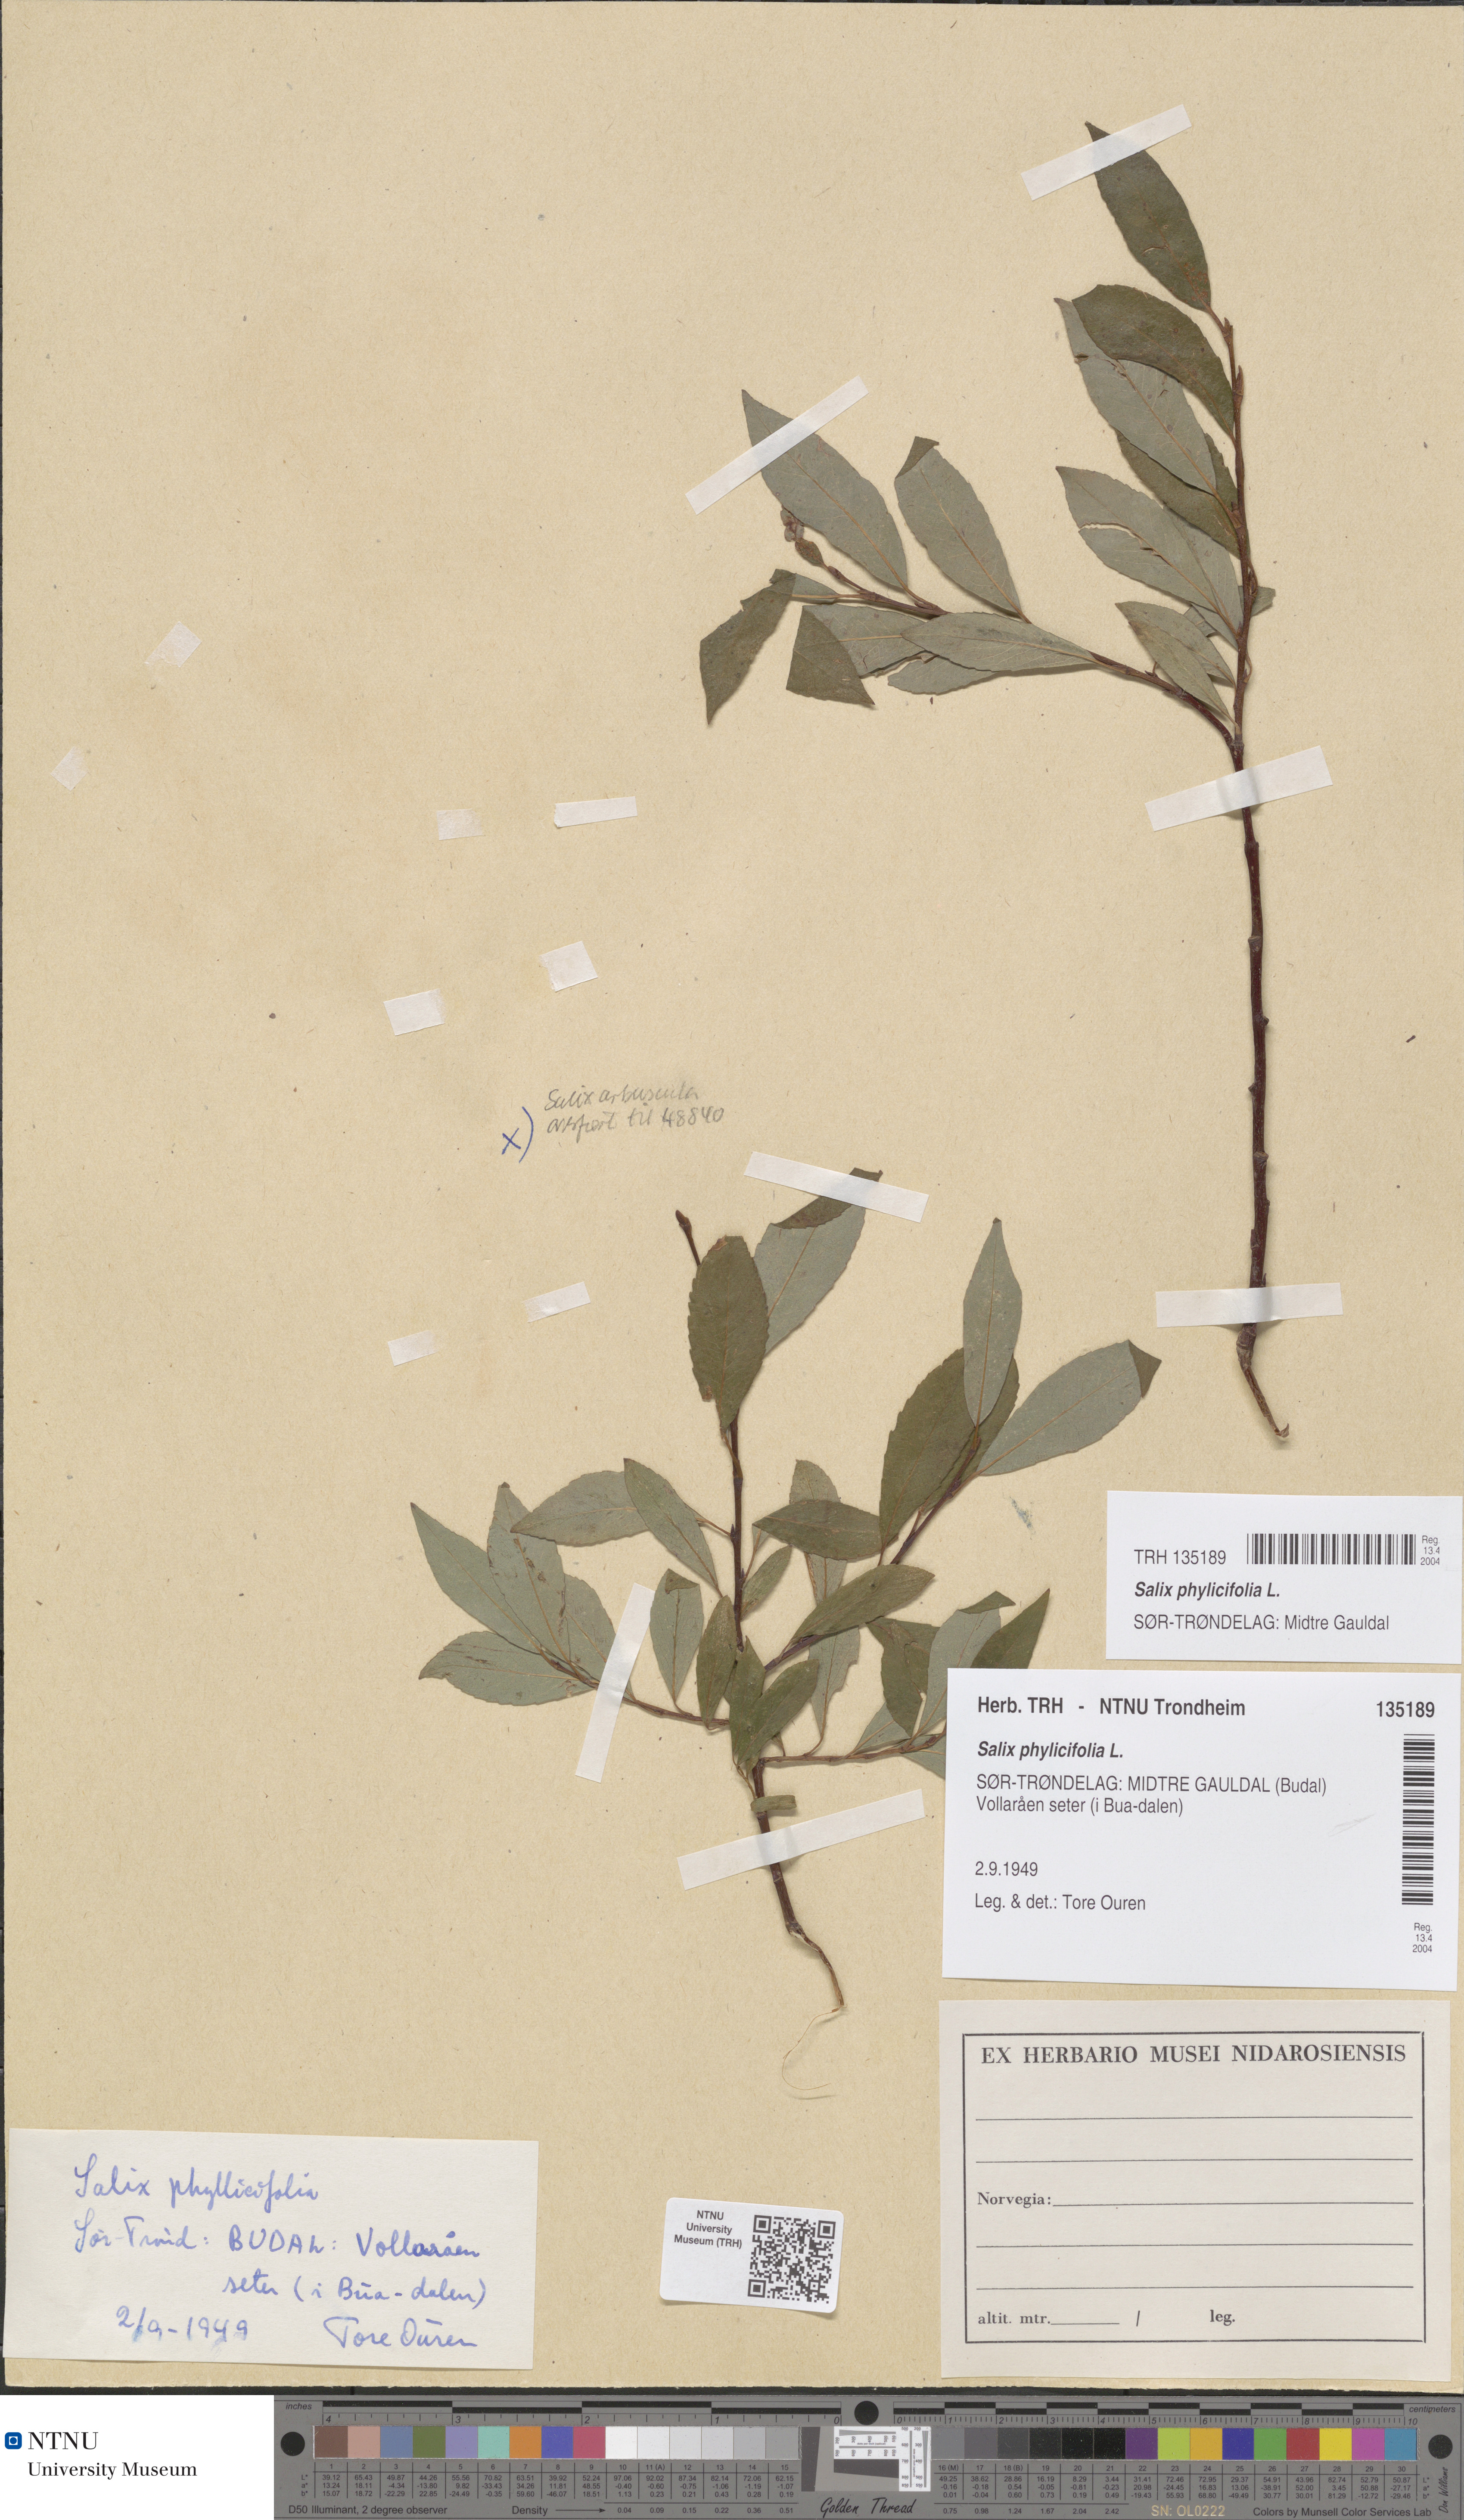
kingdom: Plantae
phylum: Tracheophyta
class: Magnoliopsida
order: Malpighiales
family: Salicaceae
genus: Salix
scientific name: Salix phylicifolia
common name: Tea-leaved willow
